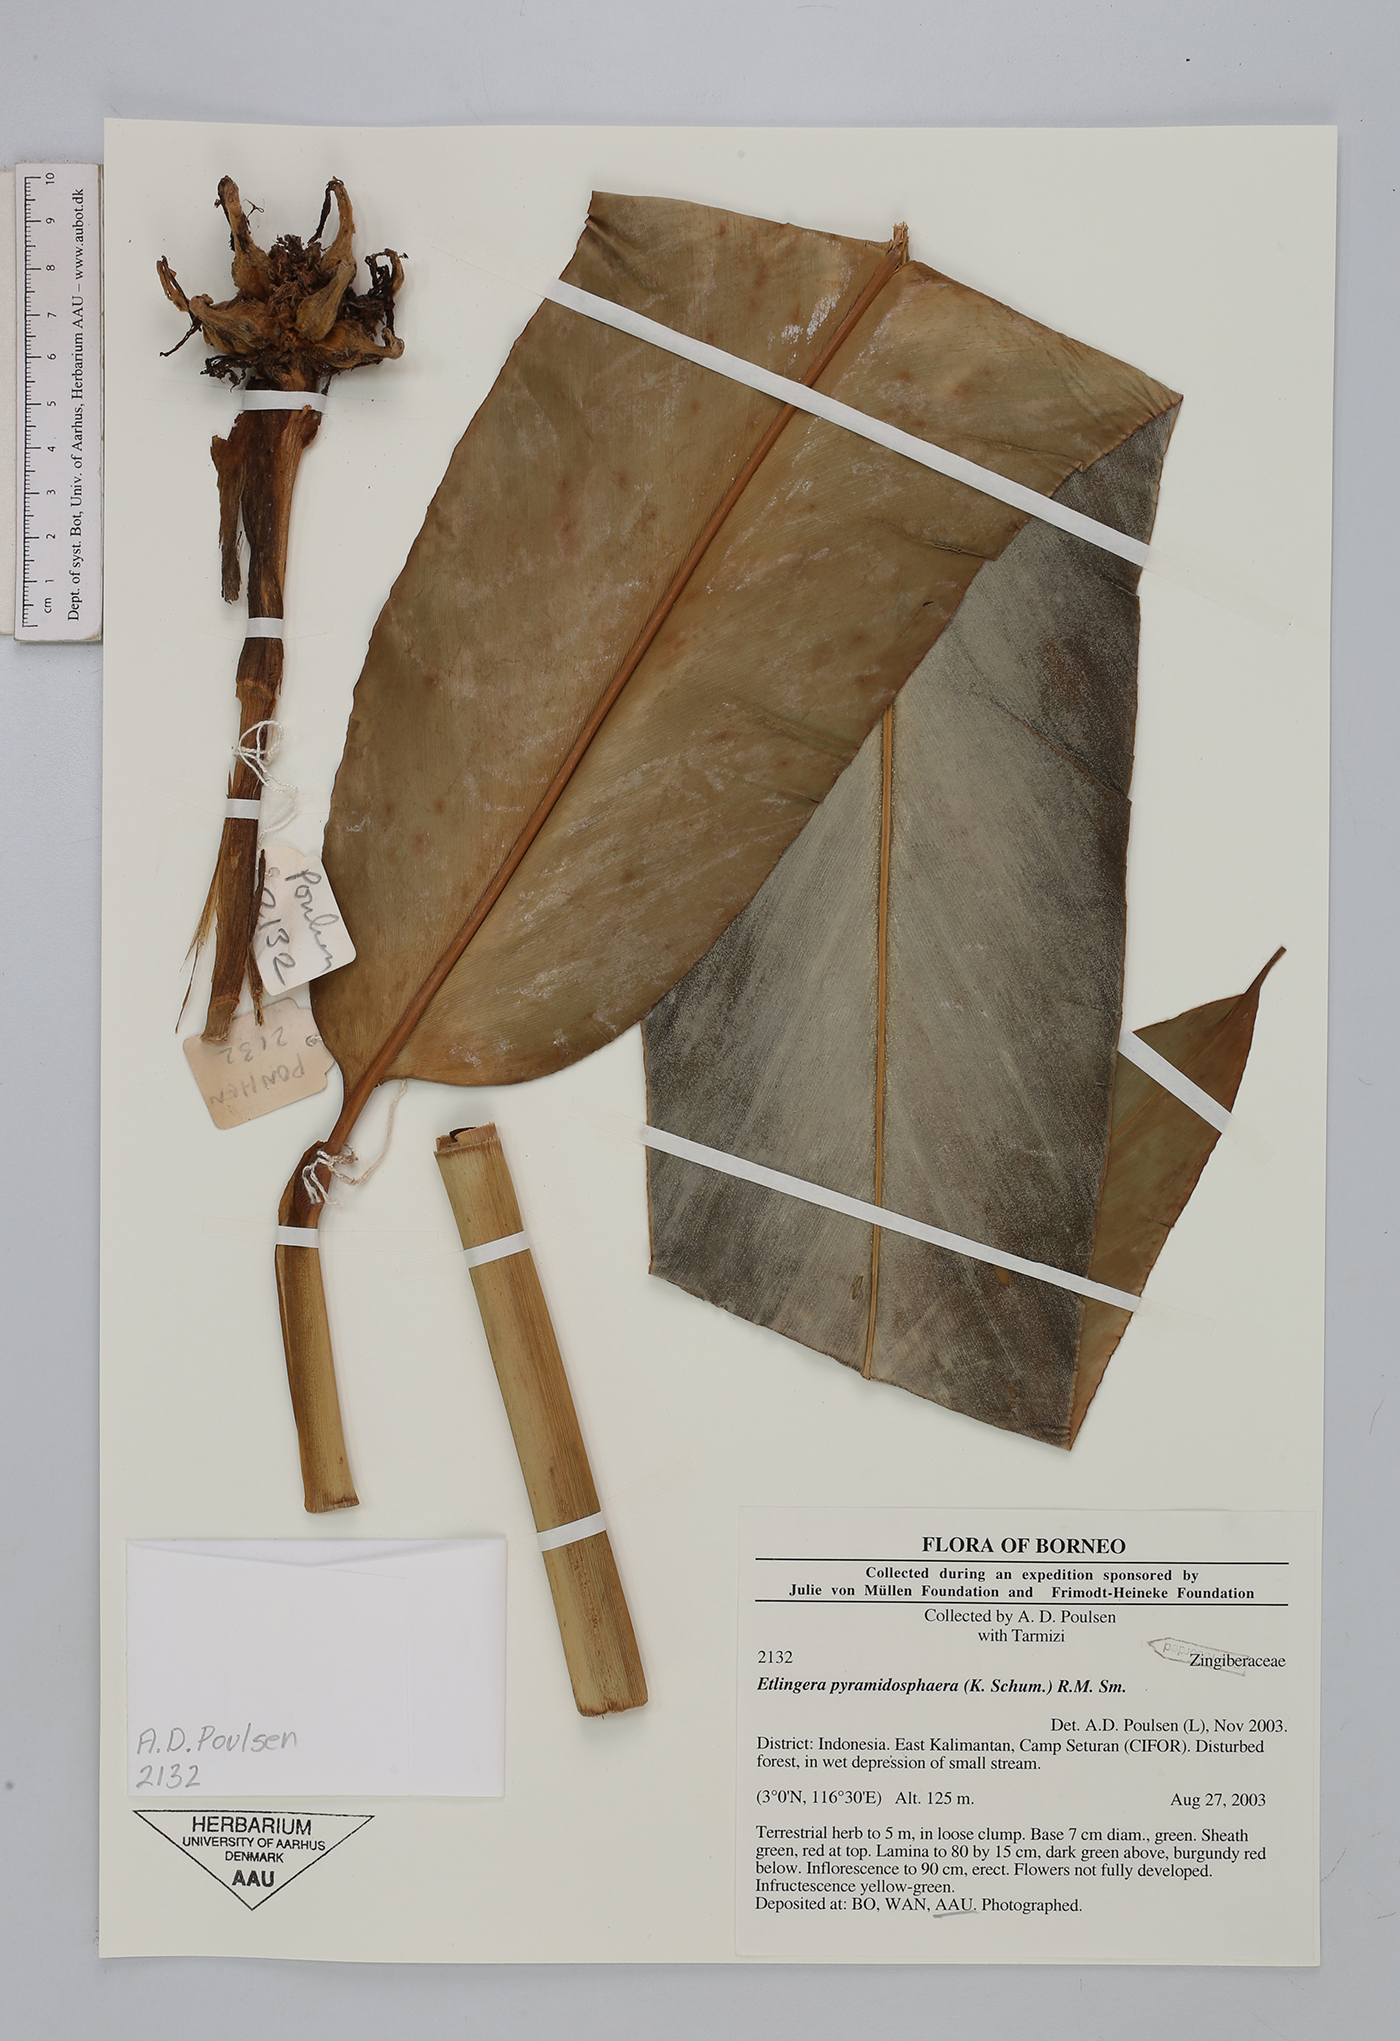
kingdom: Plantae
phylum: Tracheophyta
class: Liliopsida
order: Zingiberales
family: Zingiberaceae
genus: Etlingera
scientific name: Etlingera pyramidosphaera
